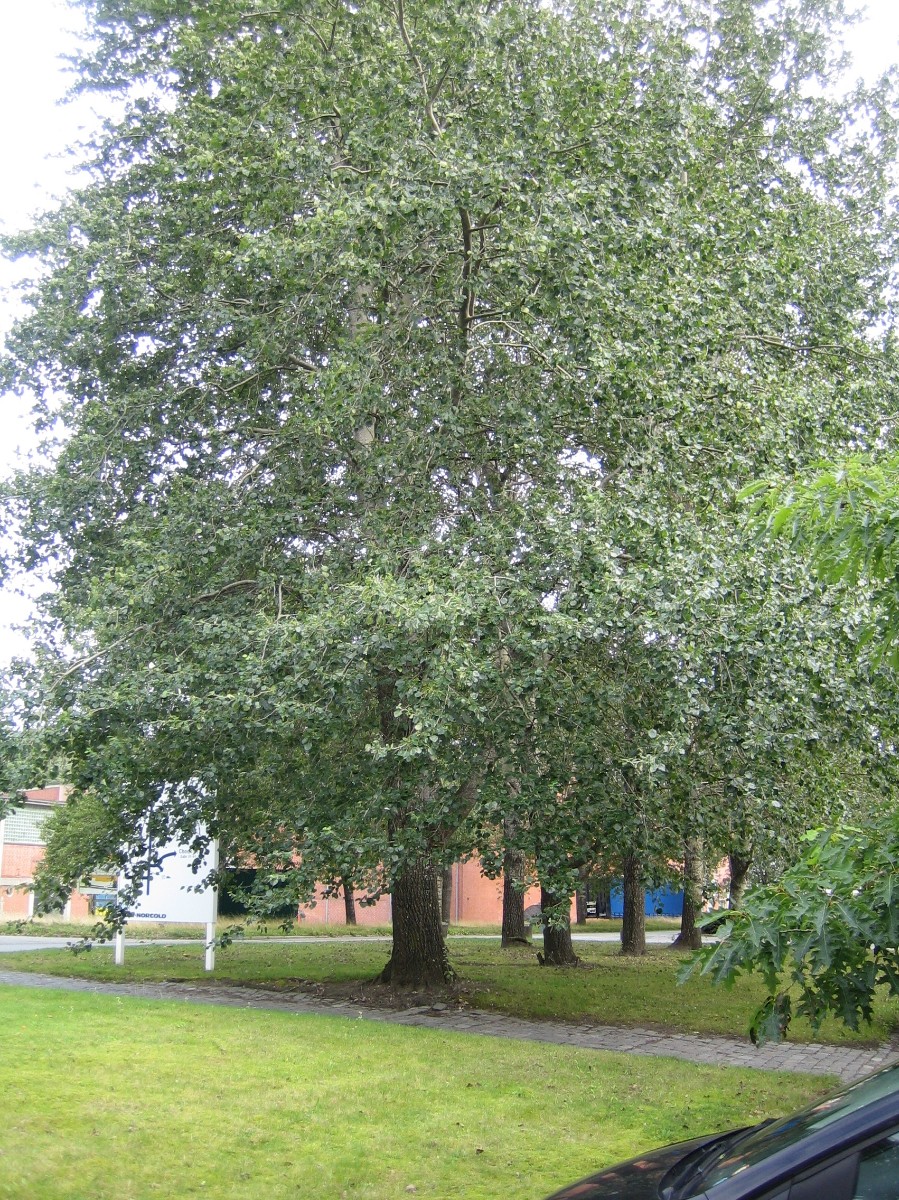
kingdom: Fungi
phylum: Basidiomycota
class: Agaricomycetes
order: Boletales
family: Boletaceae
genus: Leccinum
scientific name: Leccinum aurantiacum
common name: rustrød skælrørhat
